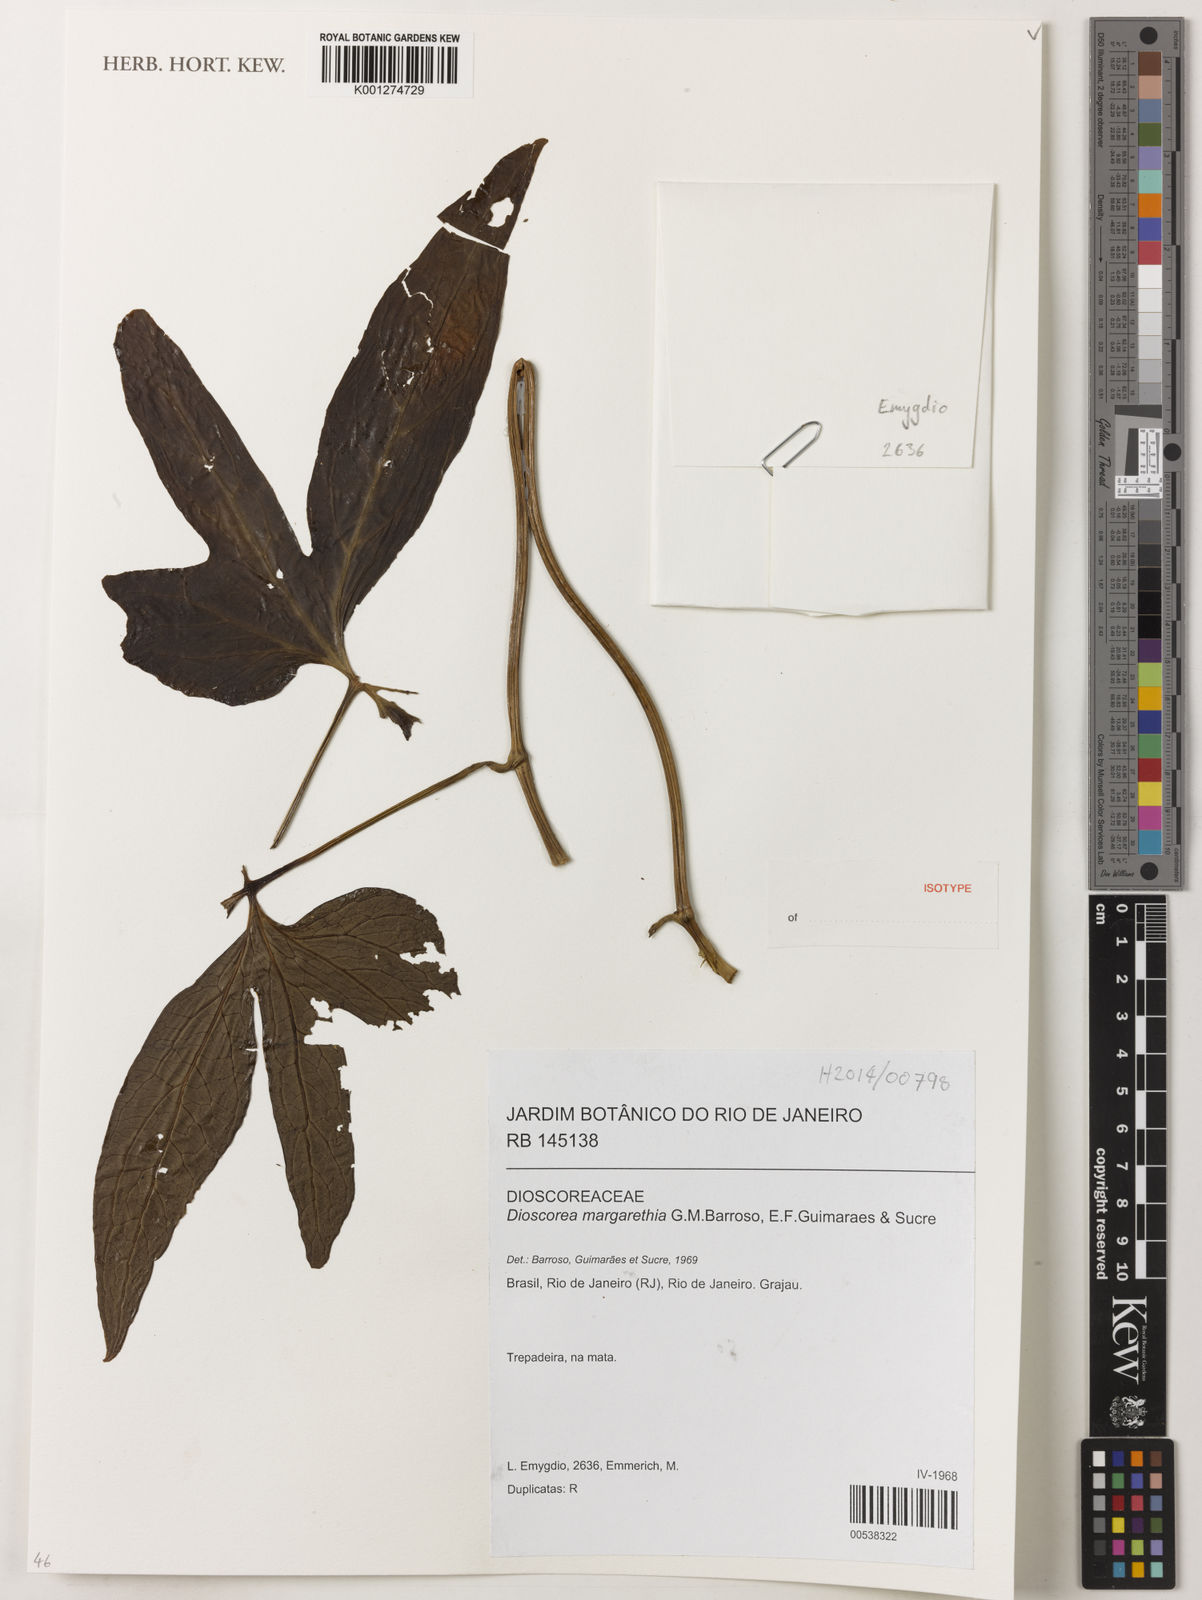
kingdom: Plantae
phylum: Tracheophyta
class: Liliopsida
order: Dioscoreales
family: Dioscoreaceae
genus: Dioscorea
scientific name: Dioscorea margarethia
